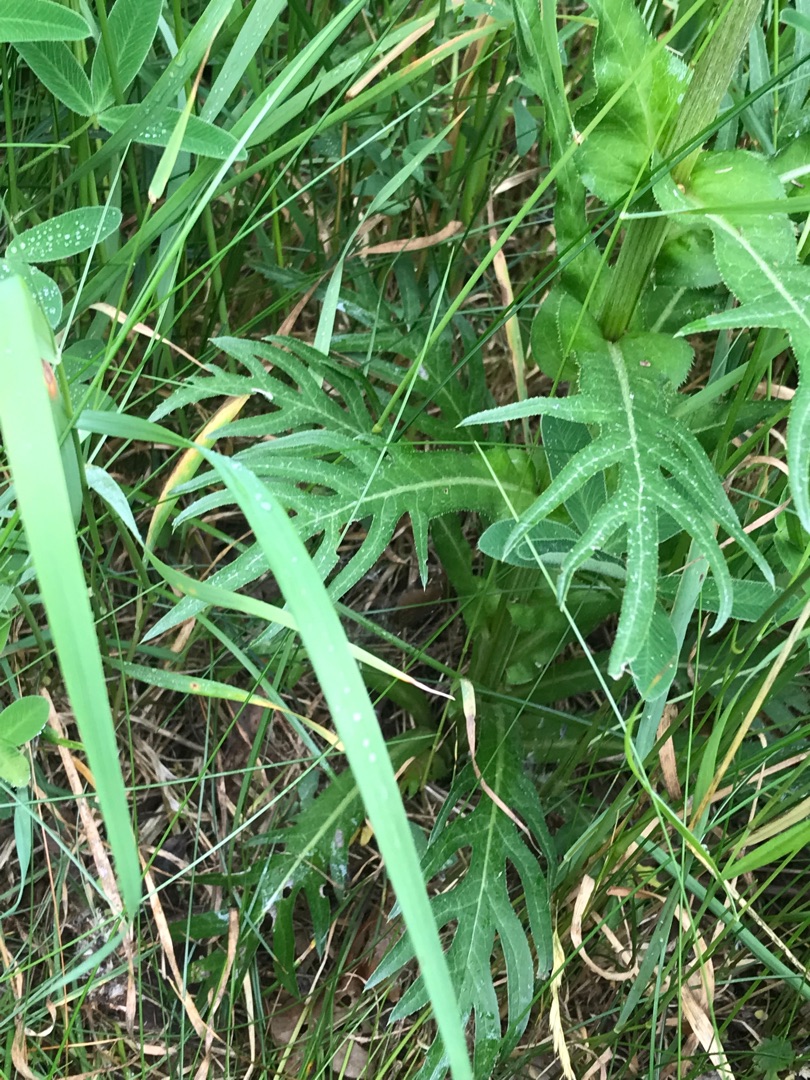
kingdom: Plantae
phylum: Tracheophyta
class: Magnoliopsida
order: Asterales
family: Asteraceae
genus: Cirsium
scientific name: Cirsium heterophyllum
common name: Forskelligbladet tidsel
